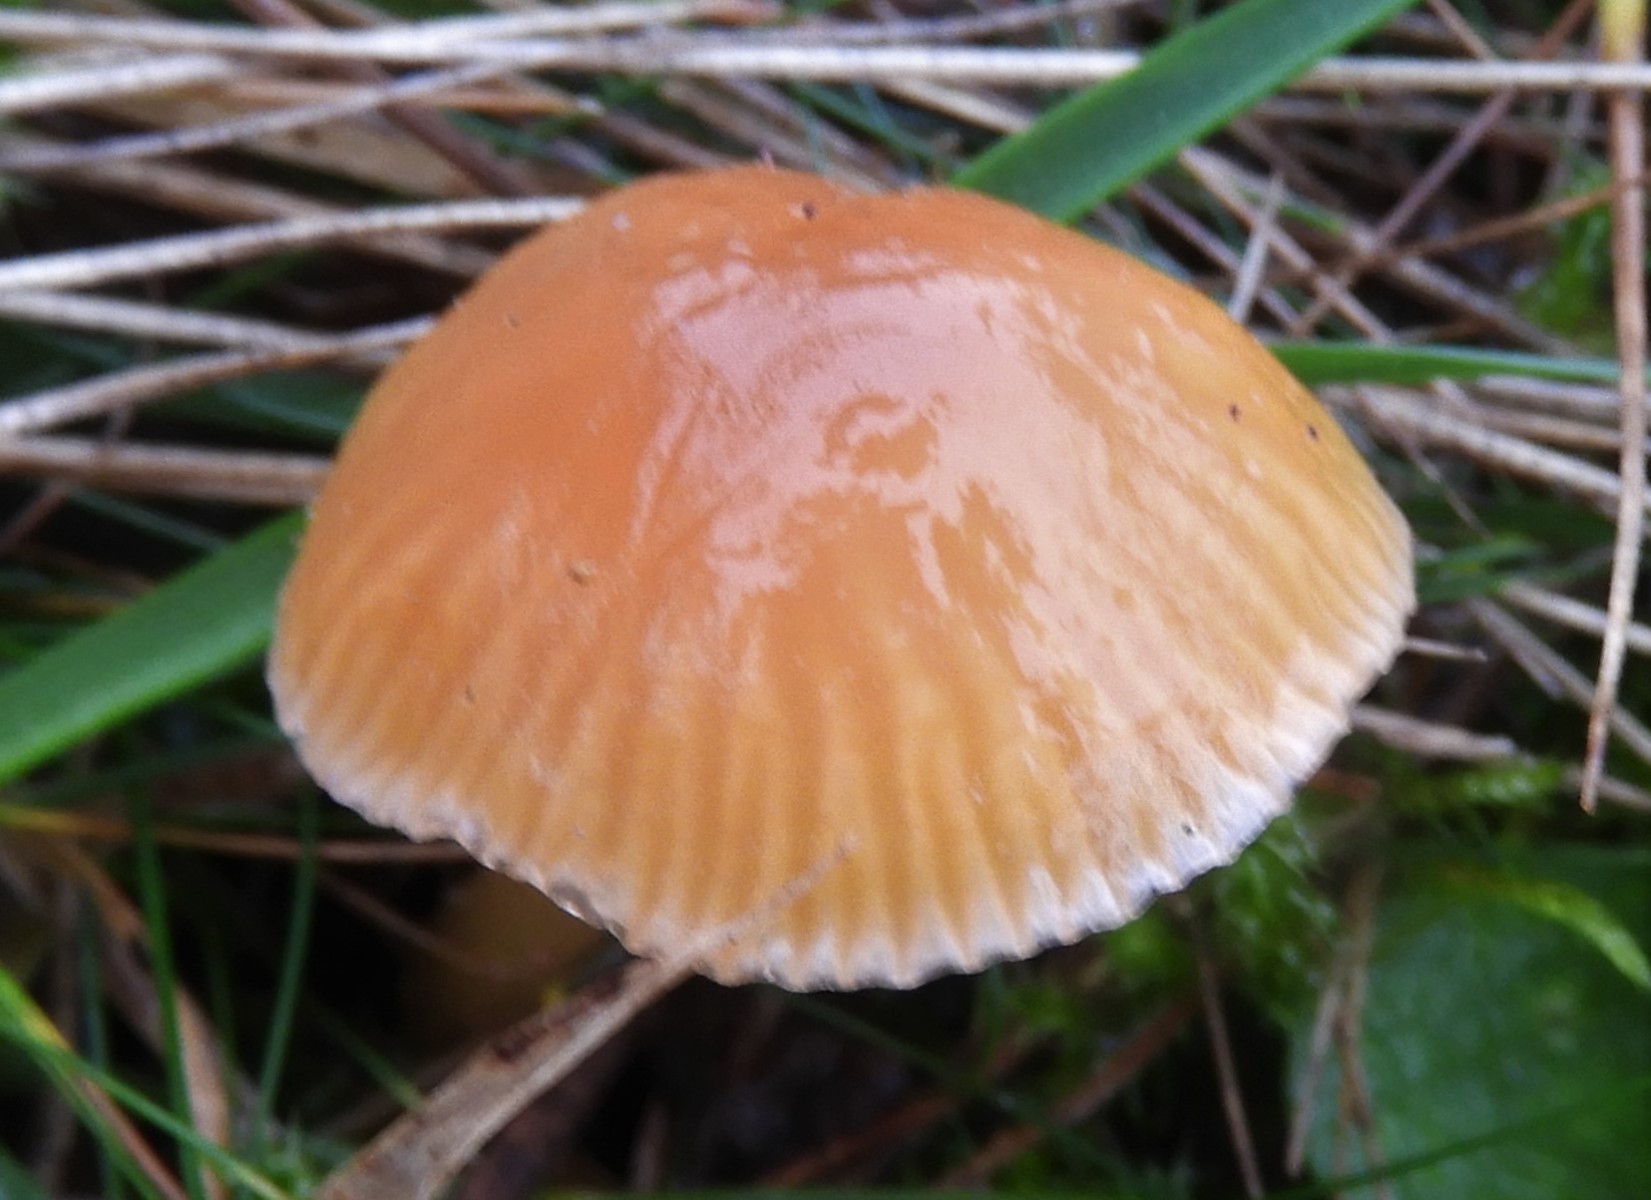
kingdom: Fungi
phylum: Basidiomycota
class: Agaricomycetes
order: Agaricales
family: Hygrophoraceae
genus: Gliophorus
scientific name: Gliophorus laetus
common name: brusk-vokshat
